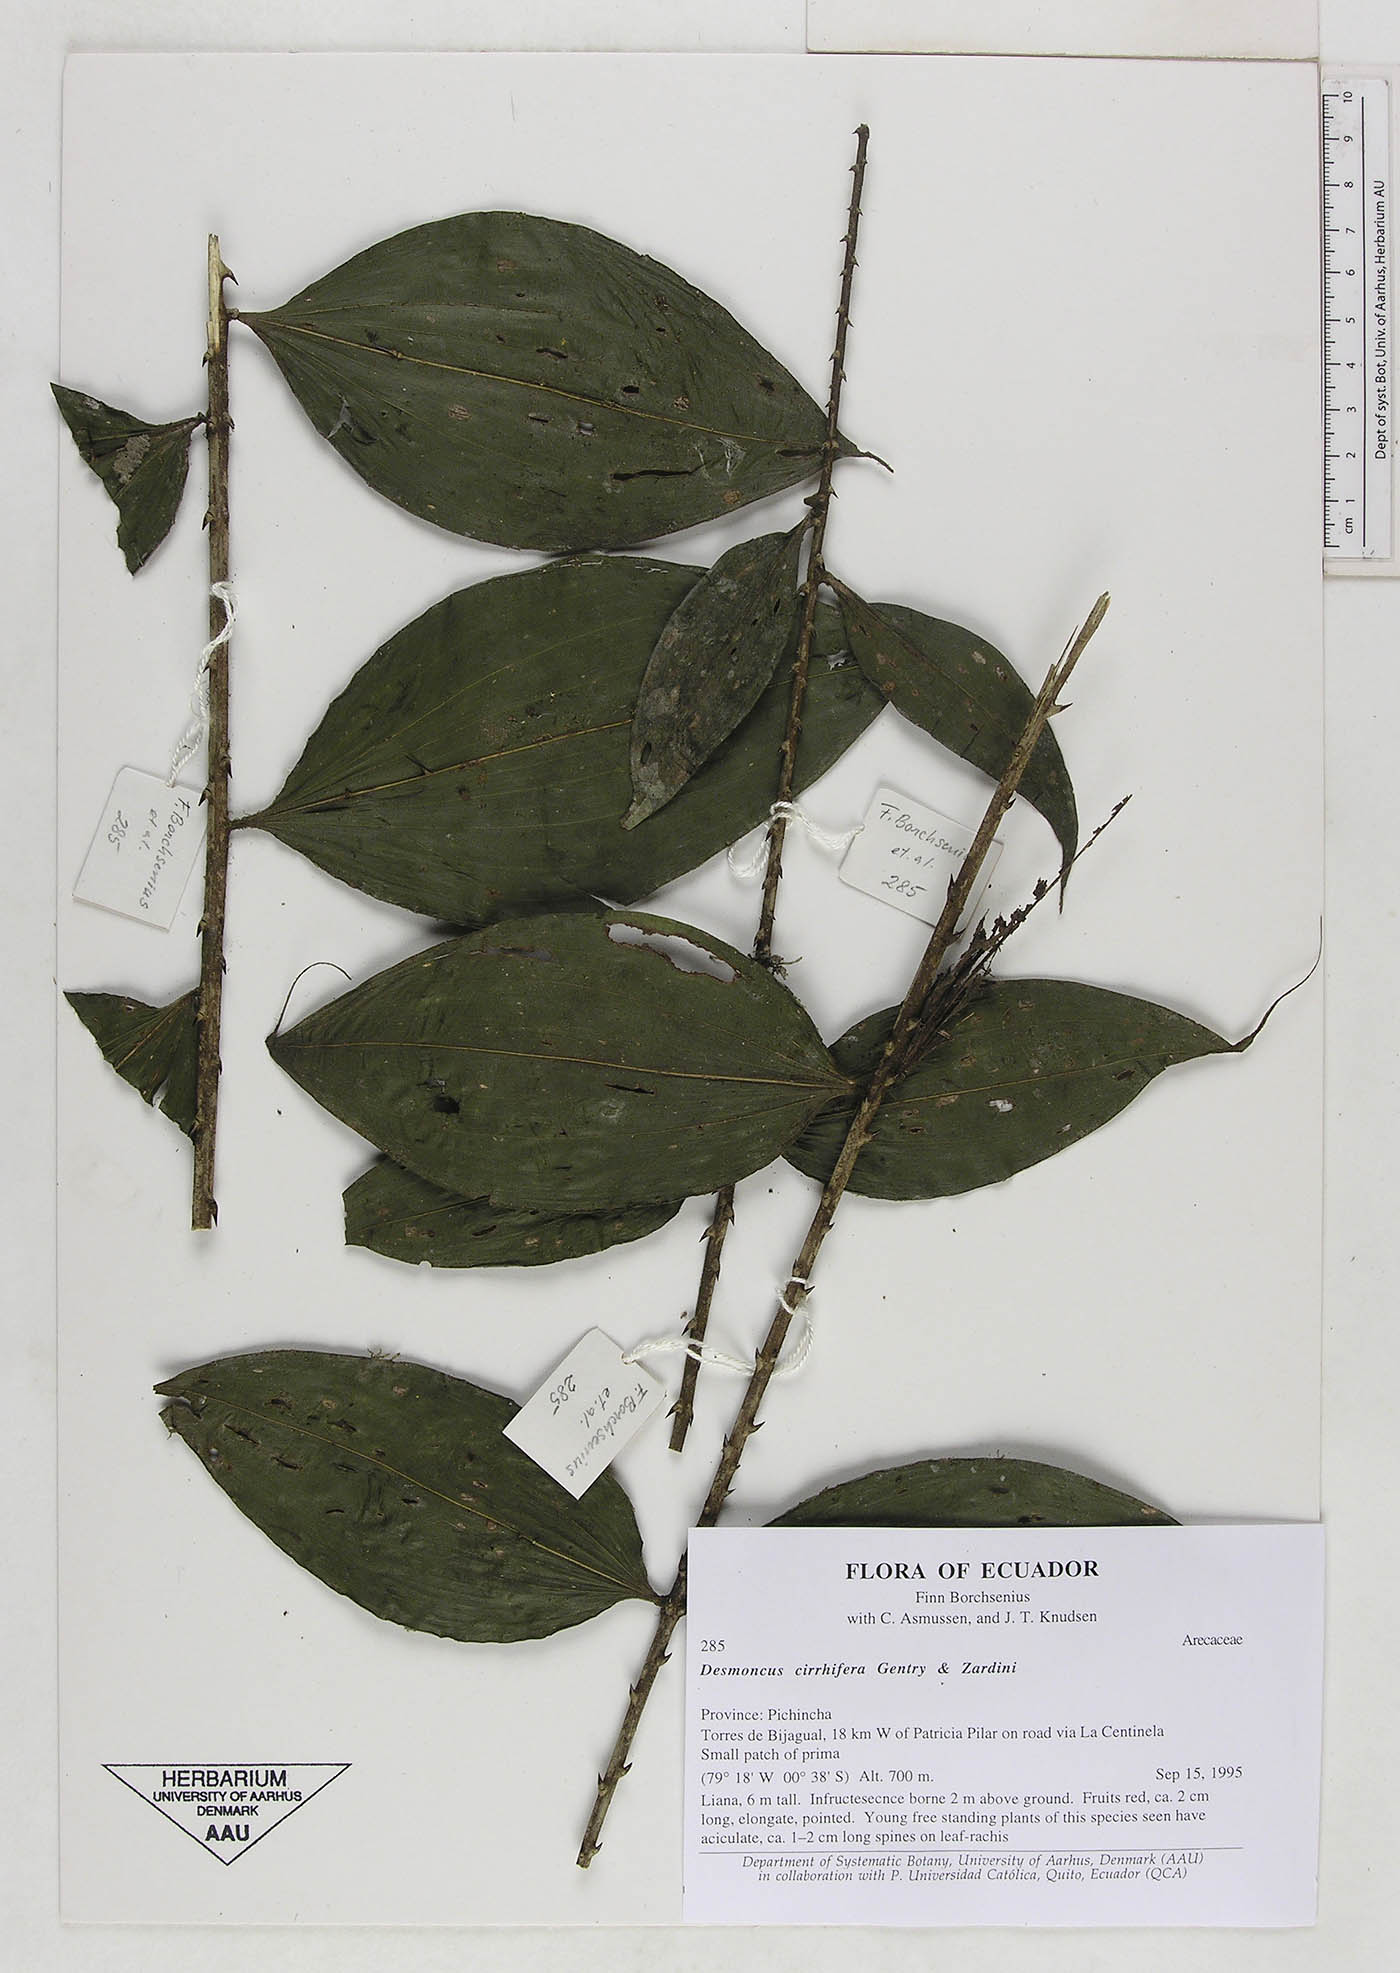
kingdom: Plantae
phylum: Tracheophyta
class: Liliopsida
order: Arecales
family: Arecaceae
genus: Desmoncus
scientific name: Desmoncus cirrhifer
